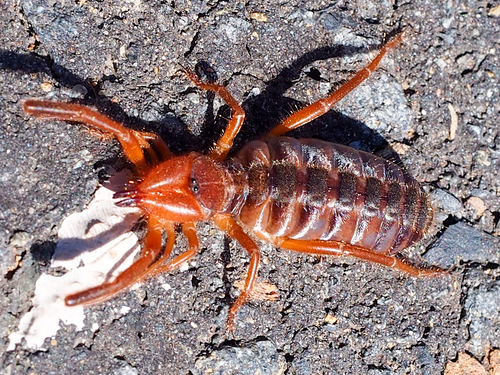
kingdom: Animalia
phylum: Arthropoda
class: Arachnida
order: Solifugae
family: Daesiidae
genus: Gluvia
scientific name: Gluvia dorsalis
